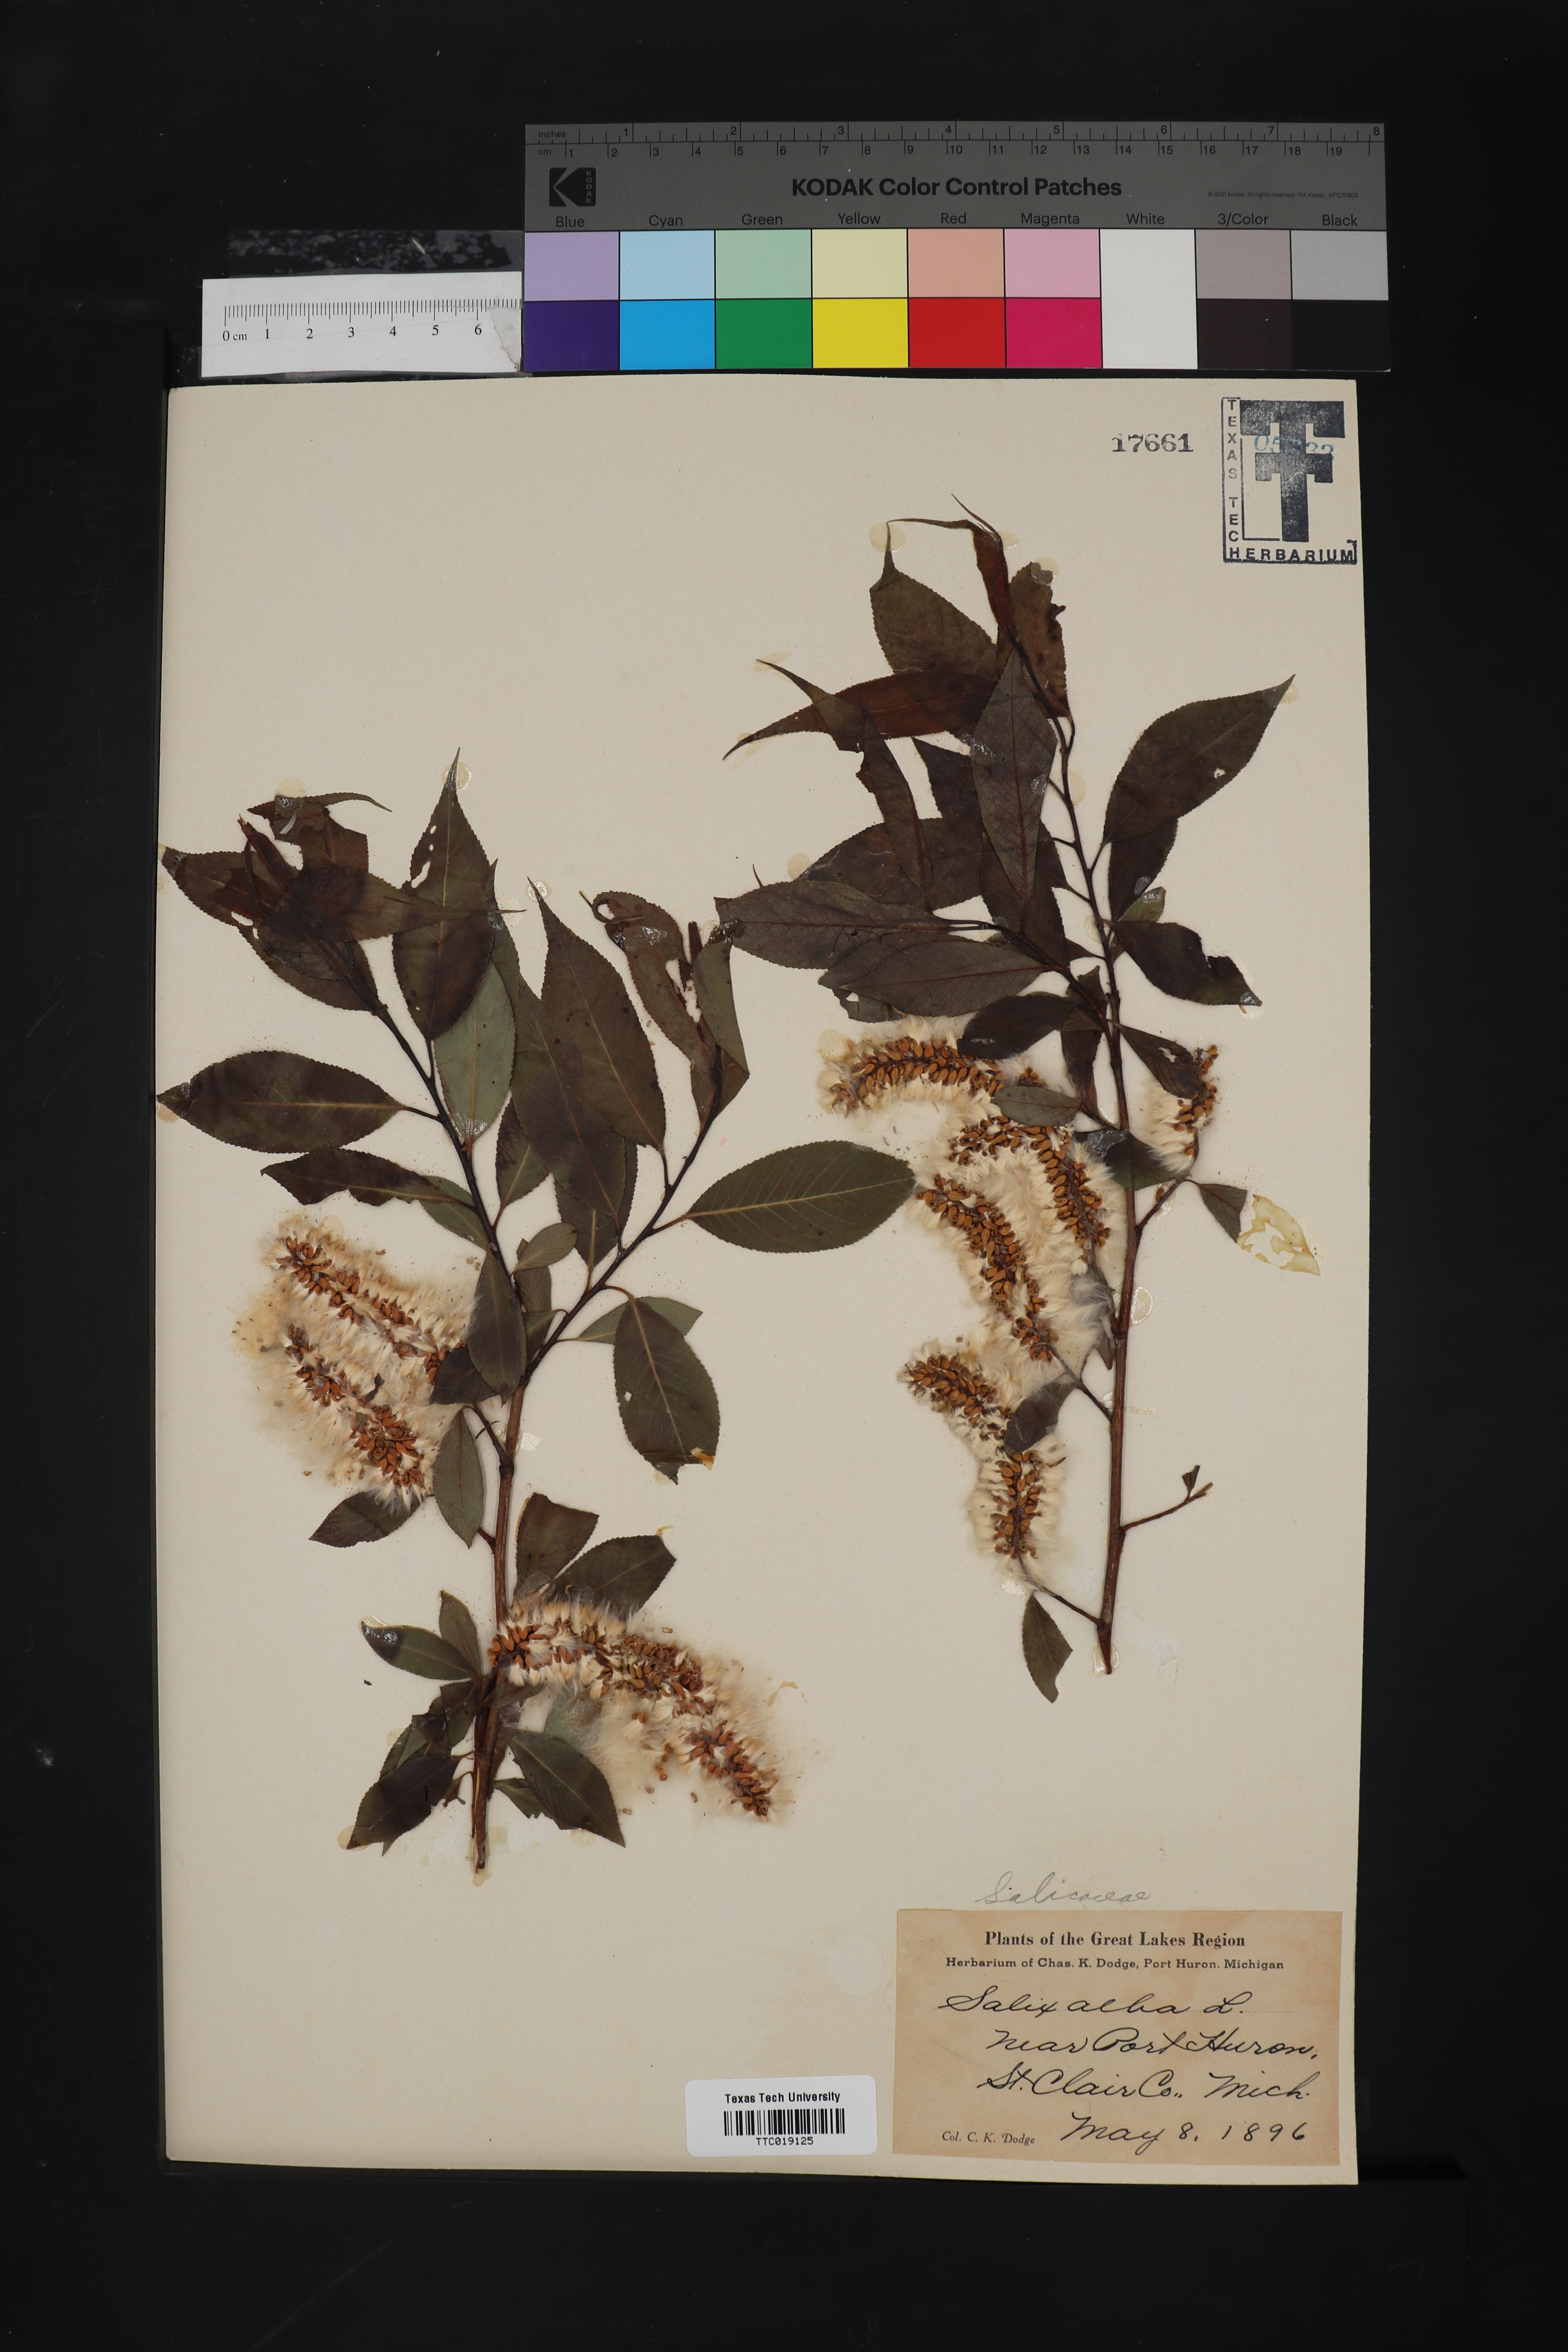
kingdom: Plantae
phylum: Tracheophyta
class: Magnoliopsida
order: Malpighiales
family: Salicaceae
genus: Salix
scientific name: Salix alba
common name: White willow
